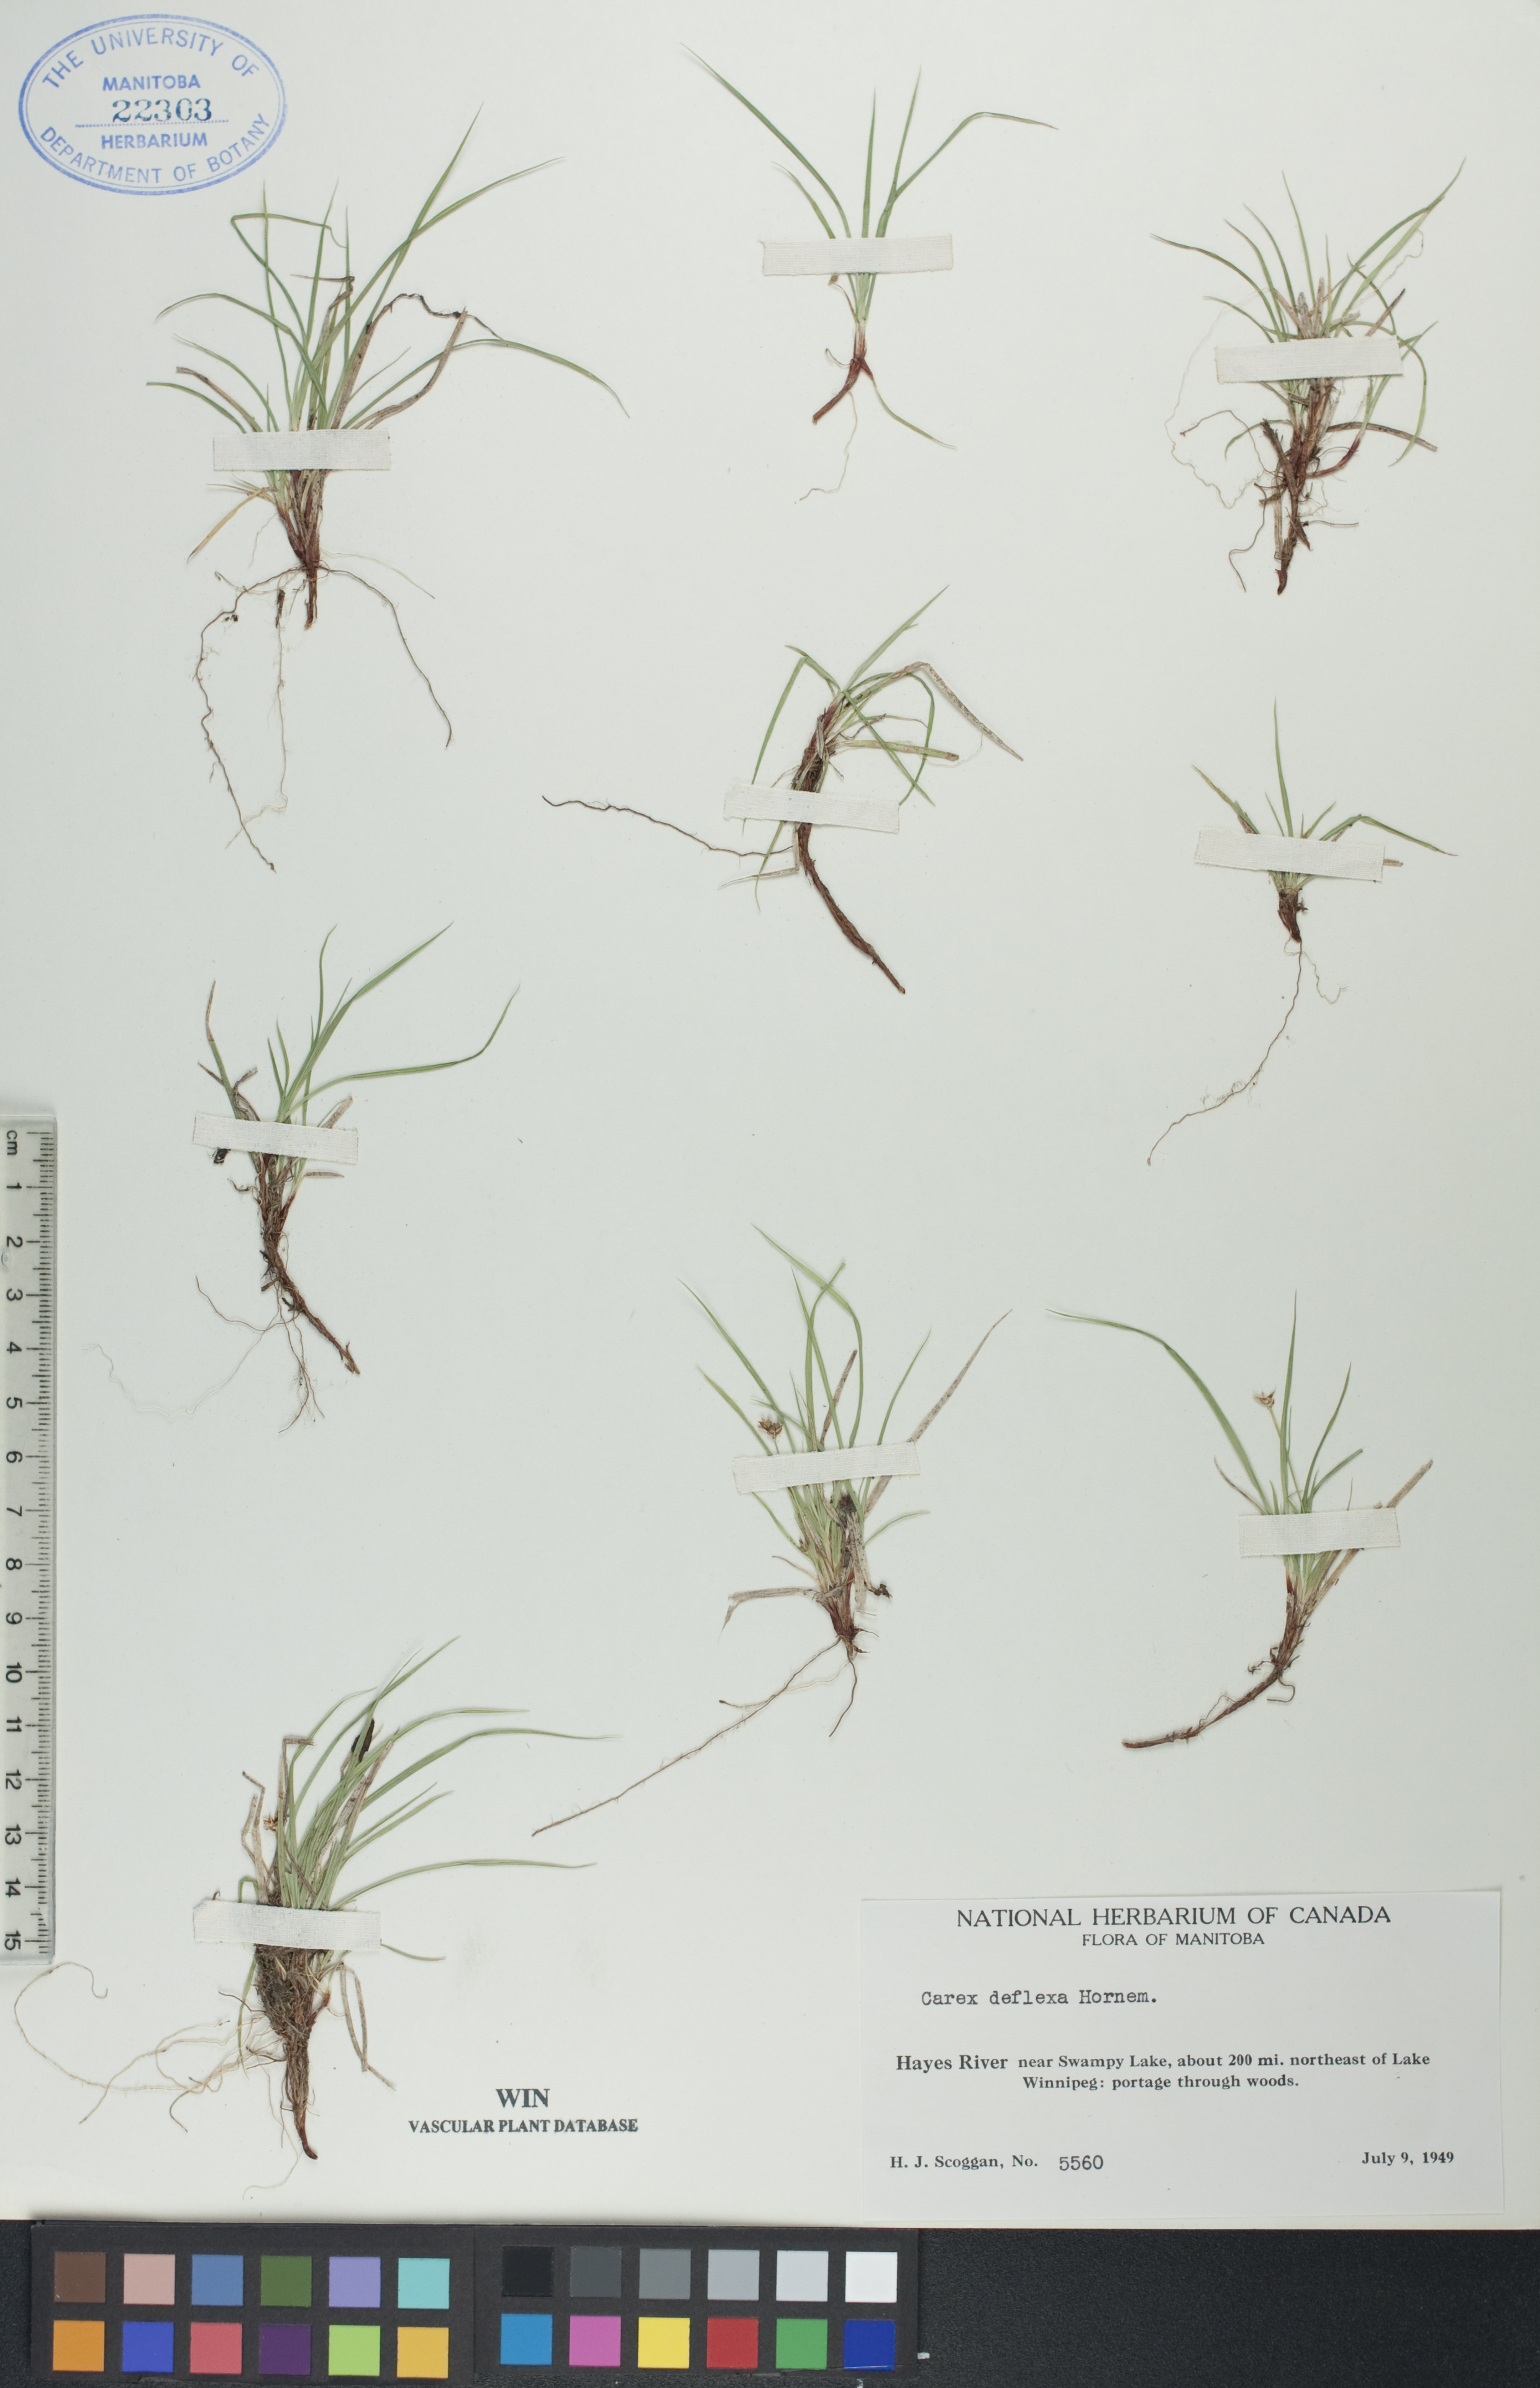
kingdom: Plantae
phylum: Tracheophyta
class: Liliopsida
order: Poales
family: Cyperaceae
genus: Carex
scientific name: Carex deflexa
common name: Bent northern sedge
